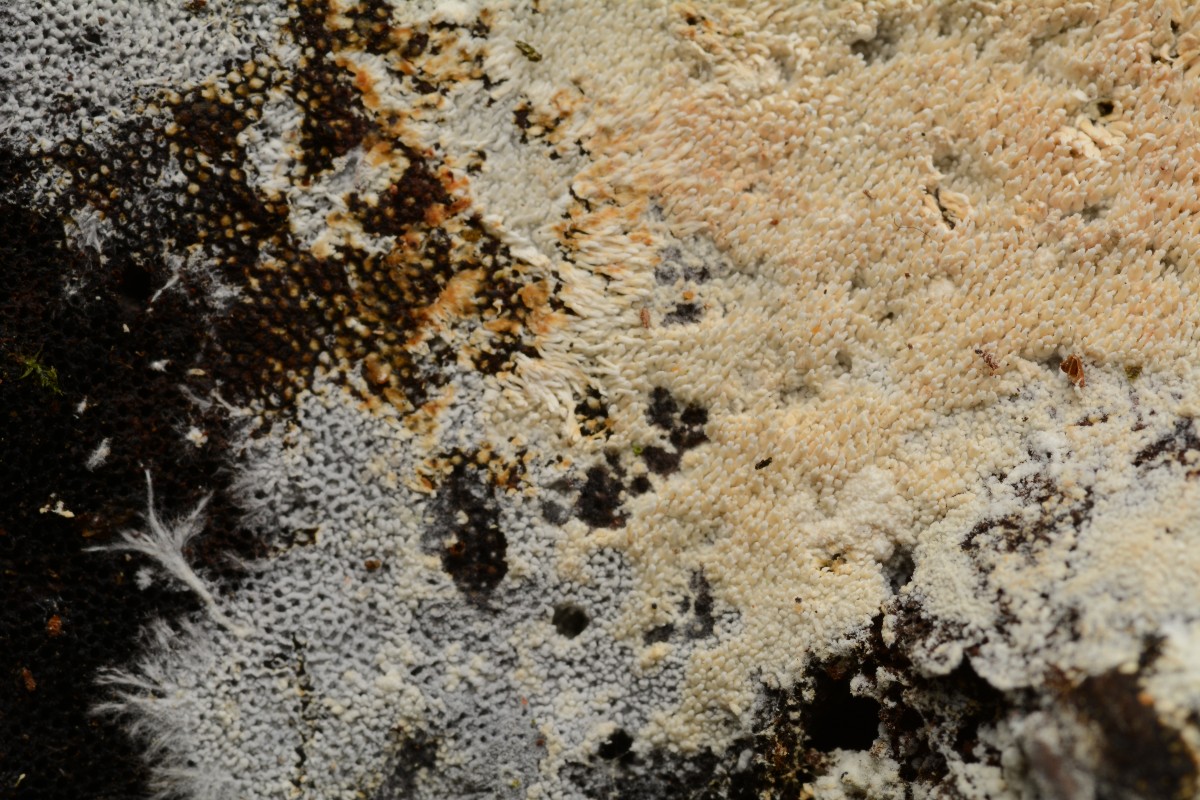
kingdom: Fungi
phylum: Basidiomycota
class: Agaricomycetes
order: Trechisporales
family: Sistotremataceae
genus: Trechispora
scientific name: Trechispora farinacea
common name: pigget vathinde
